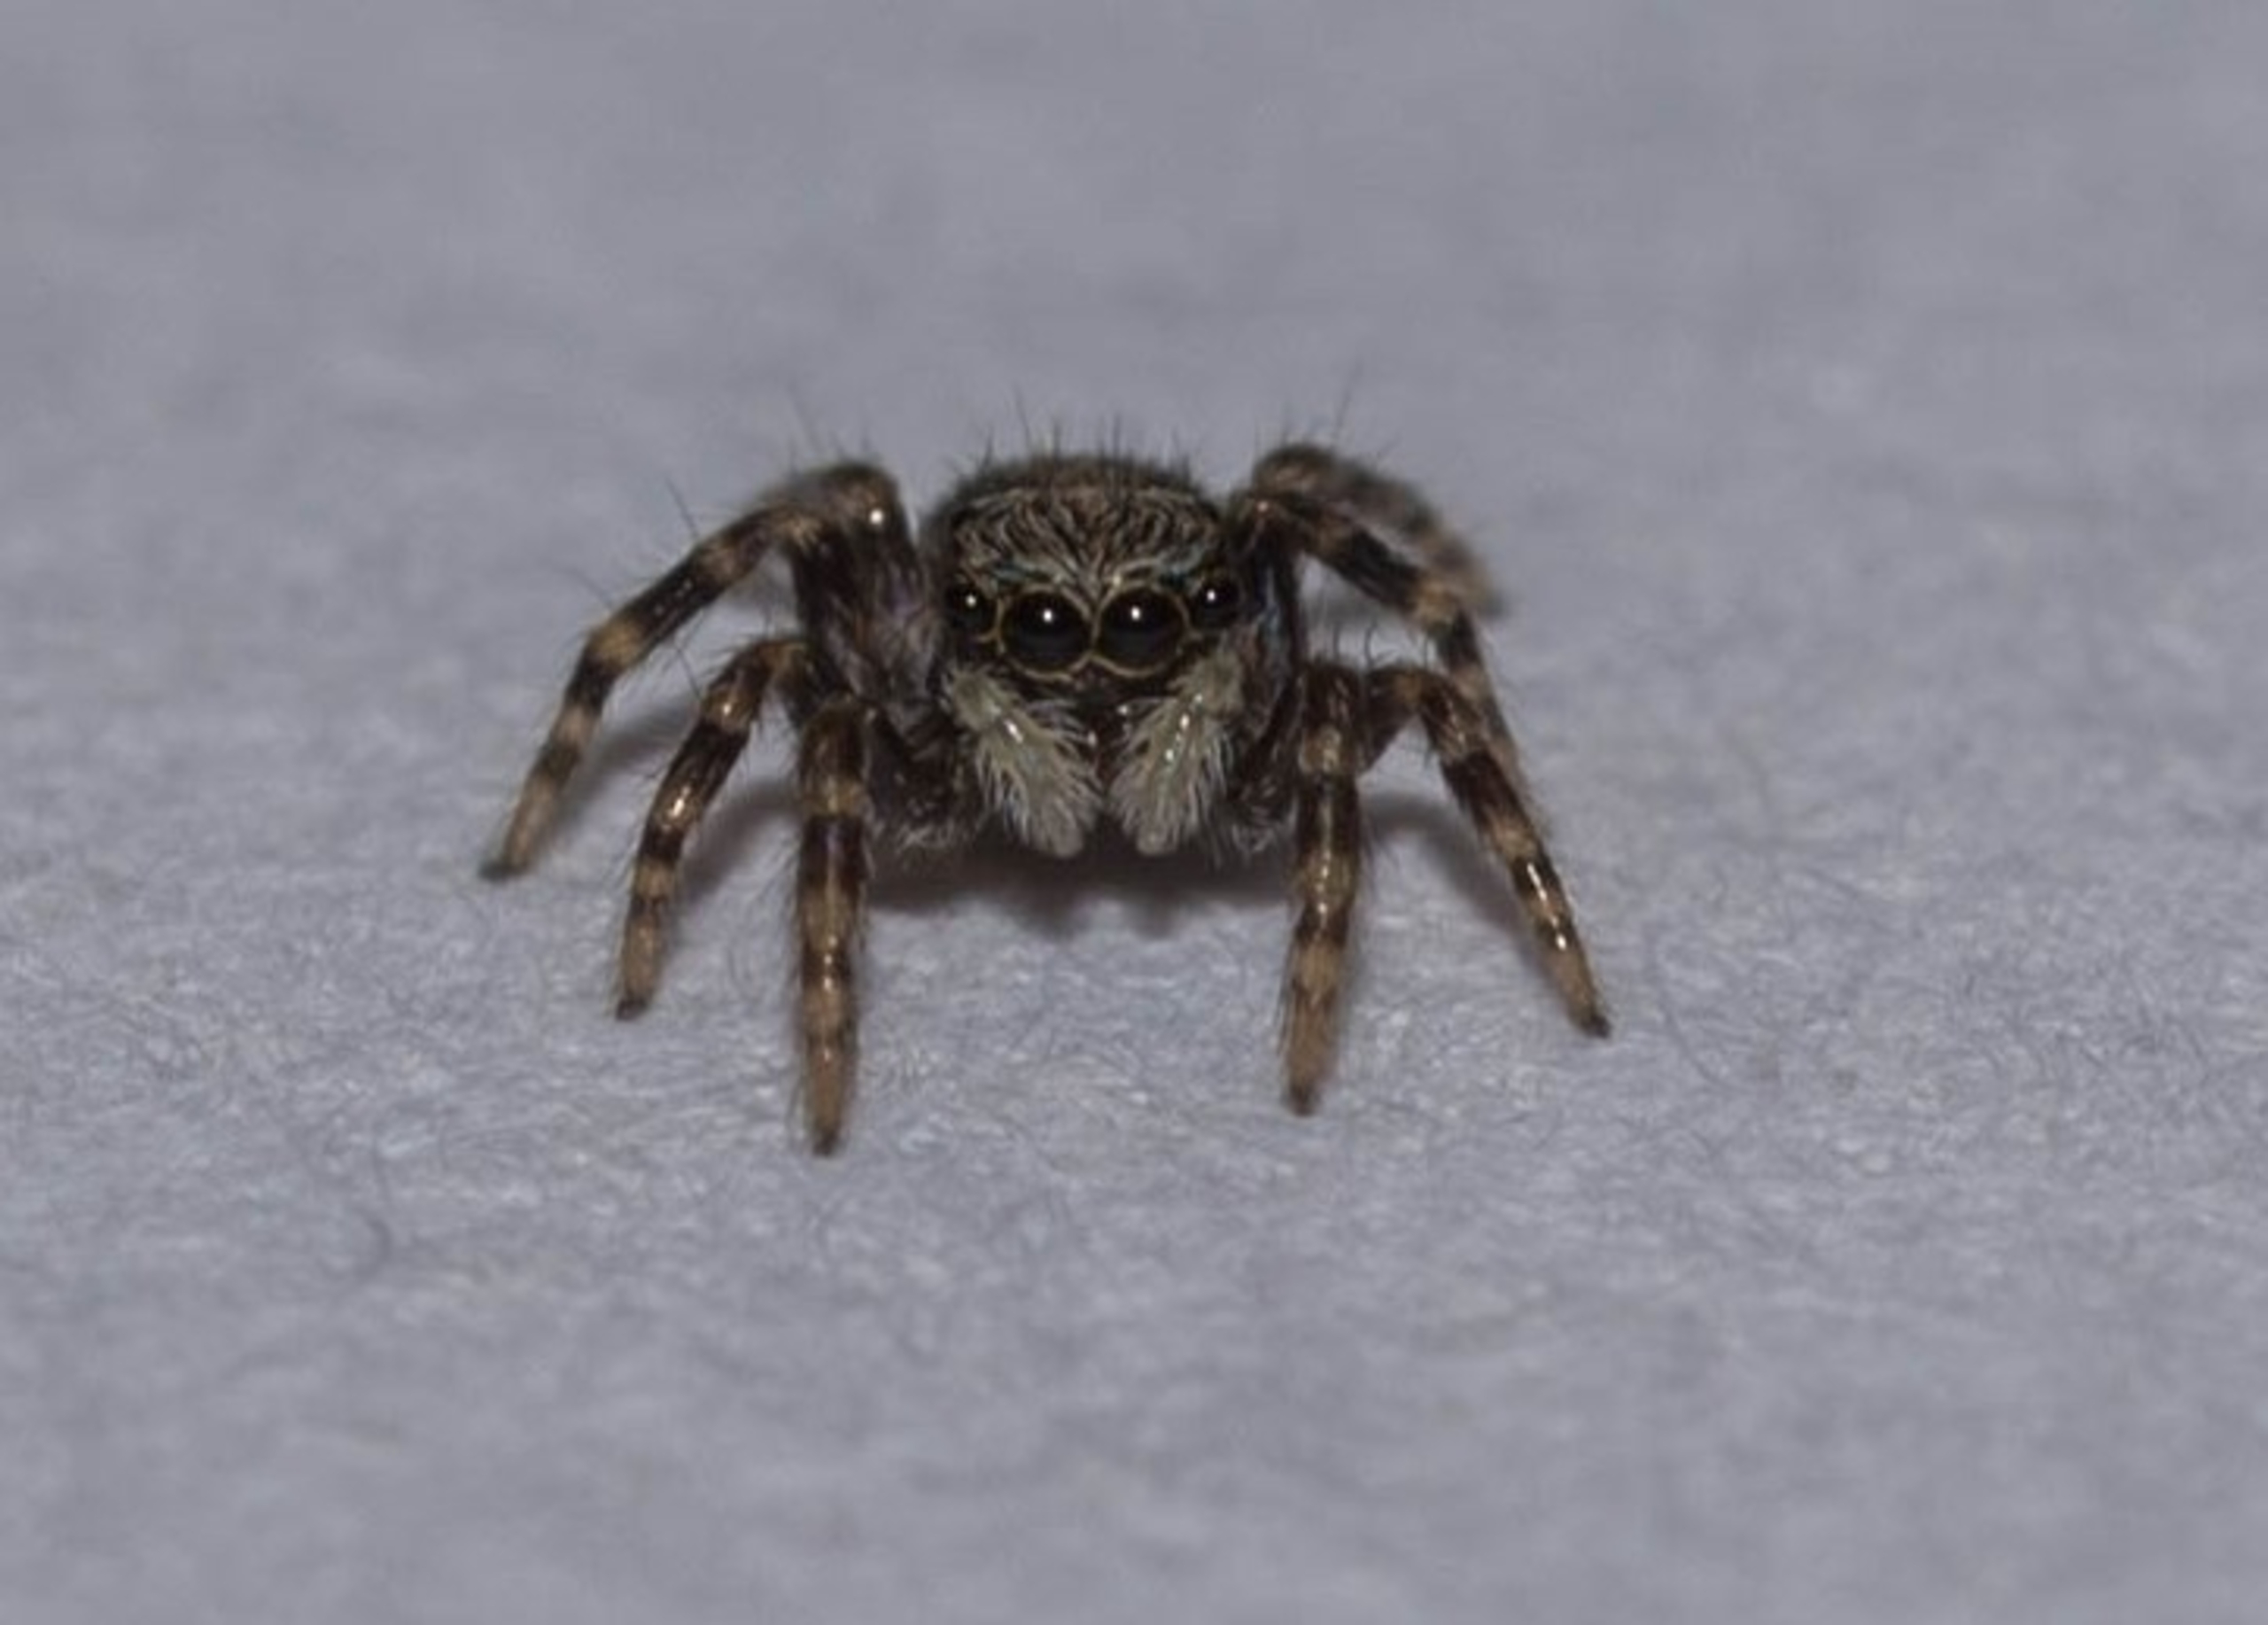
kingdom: Animalia
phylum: Arthropoda
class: Arachnida
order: Araneae
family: Salticidae
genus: Pseudeuophrys
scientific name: Pseudeuophrys lanigera
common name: Vinduesspringer
